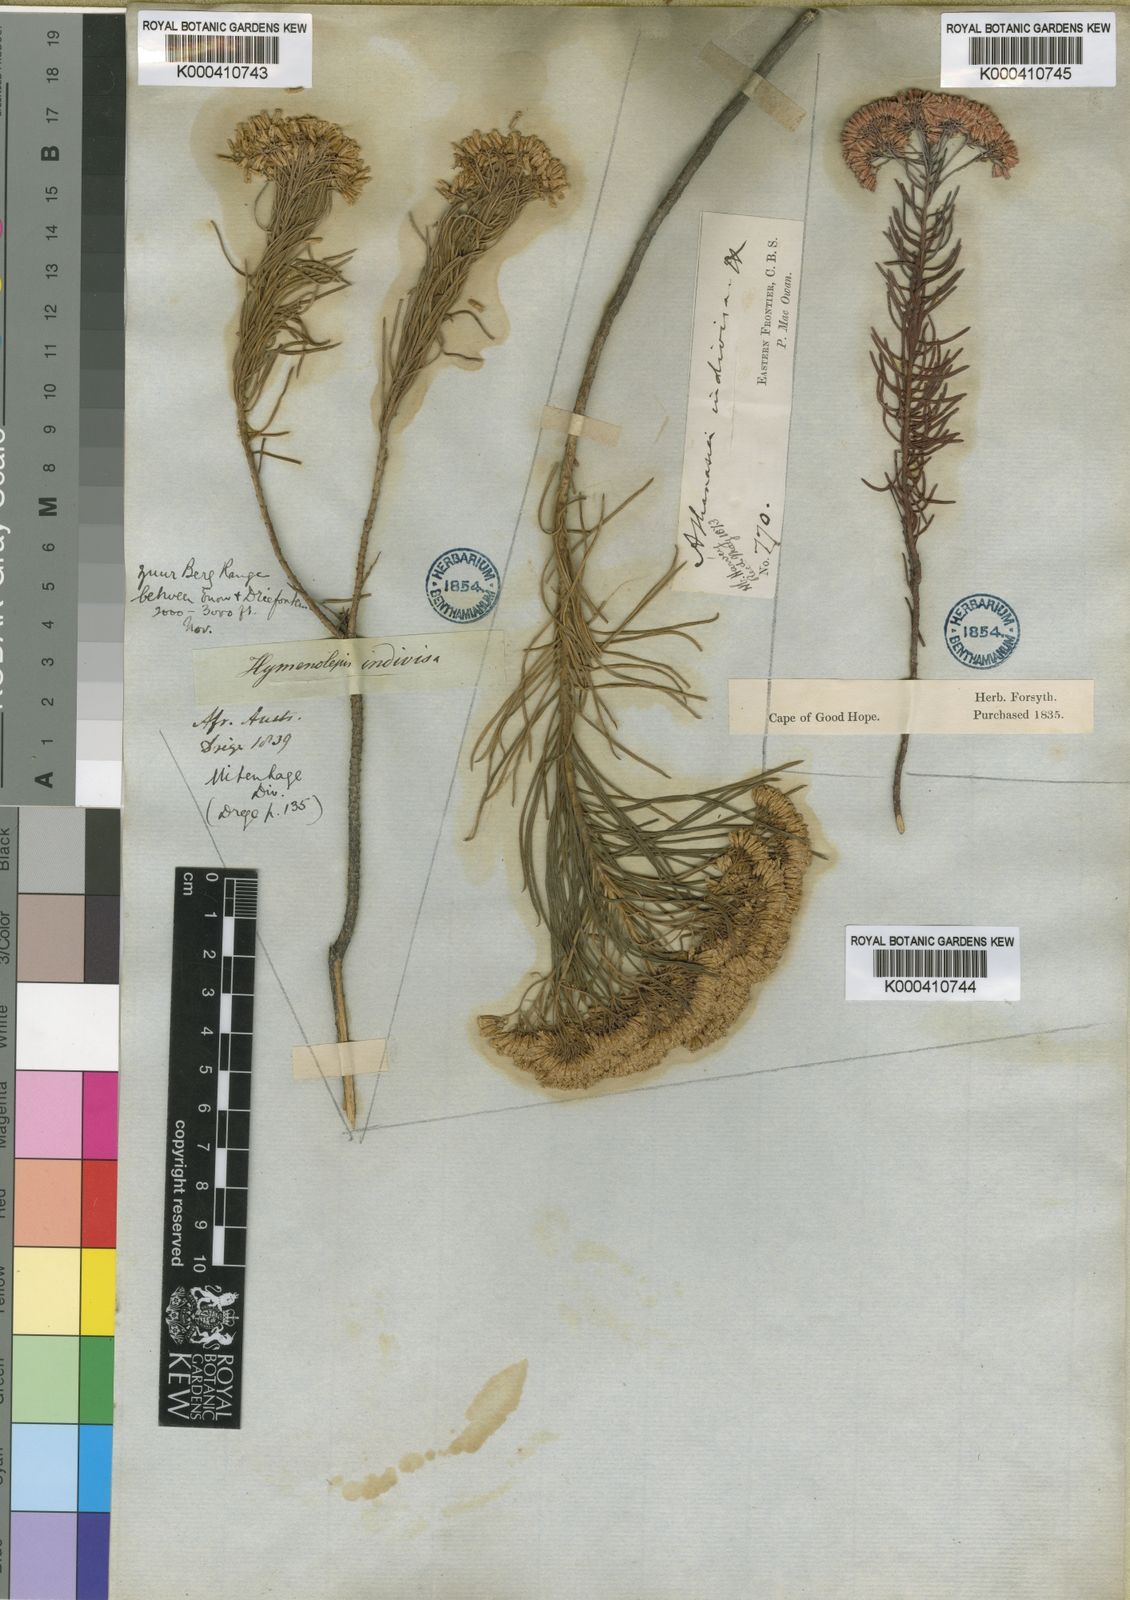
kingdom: Plantae
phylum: Tracheophyta
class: Magnoliopsida
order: Asterales
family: Asteraceae
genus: Hymenolepis
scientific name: Hymenolepis
